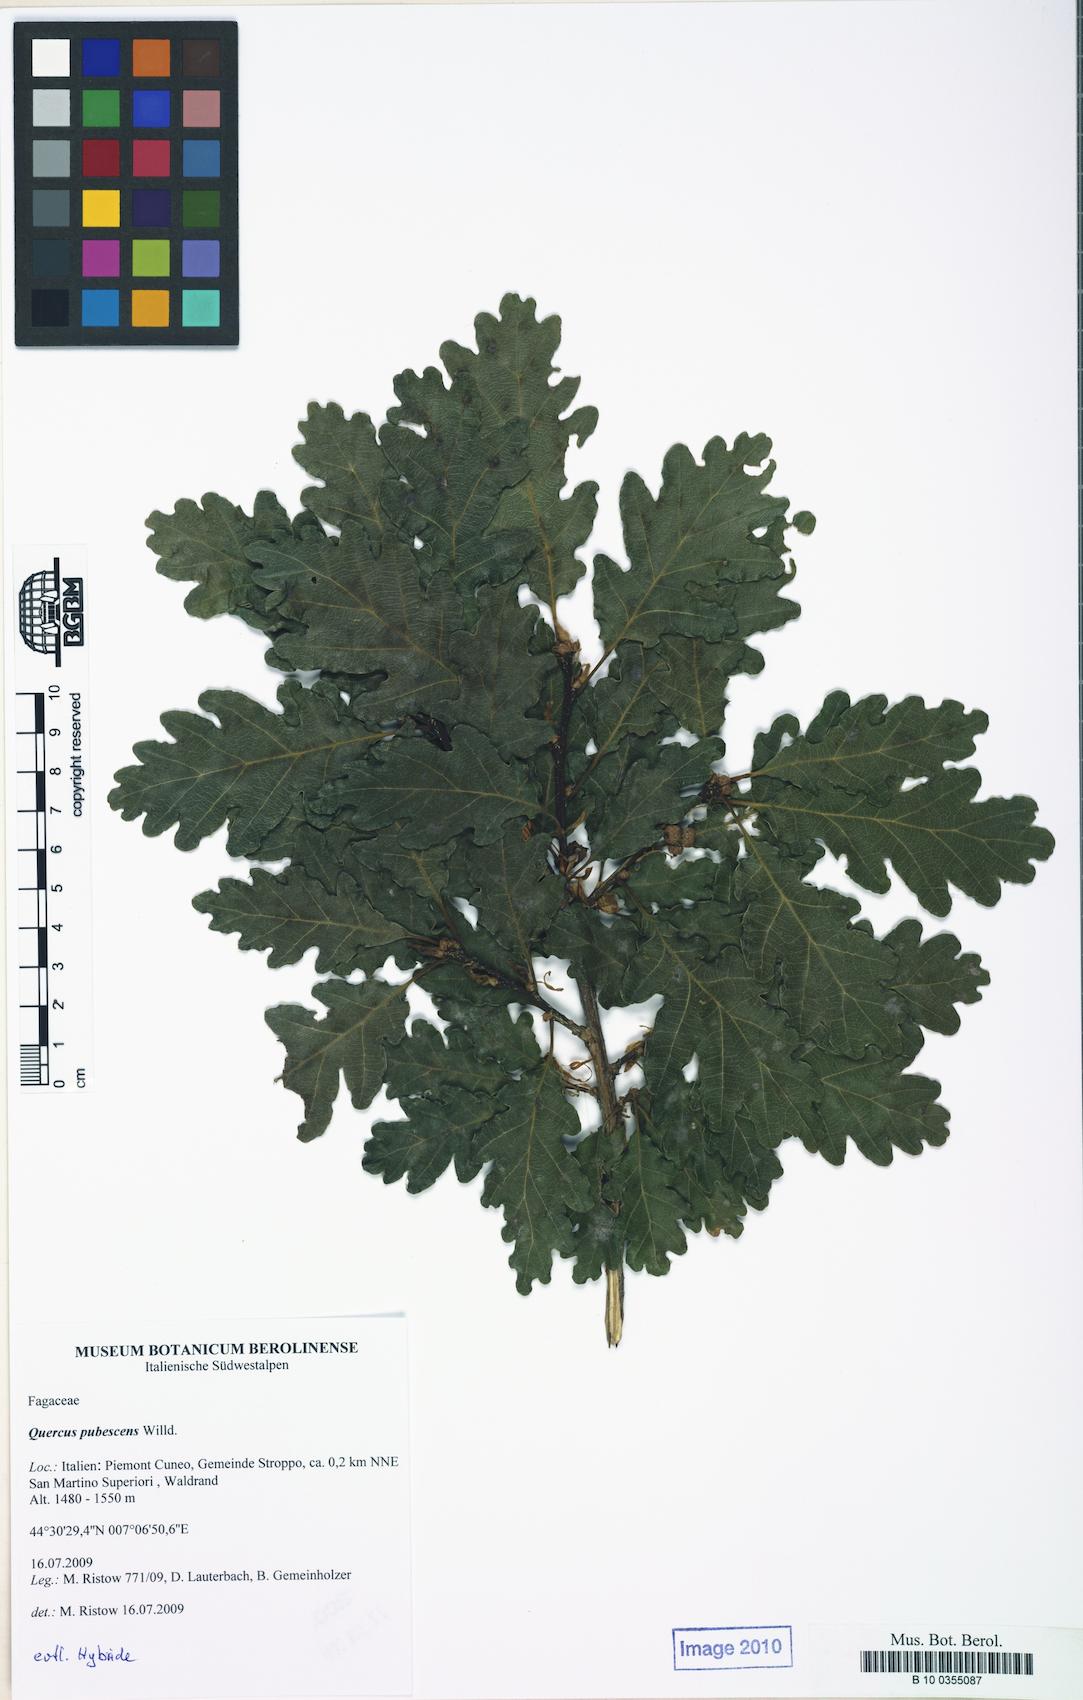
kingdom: Plantae
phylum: Tracheophyta
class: Magnoliopsida
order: Fagales
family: Fagaceae
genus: Quercus
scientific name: Quercus pubescens
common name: Downy oak
